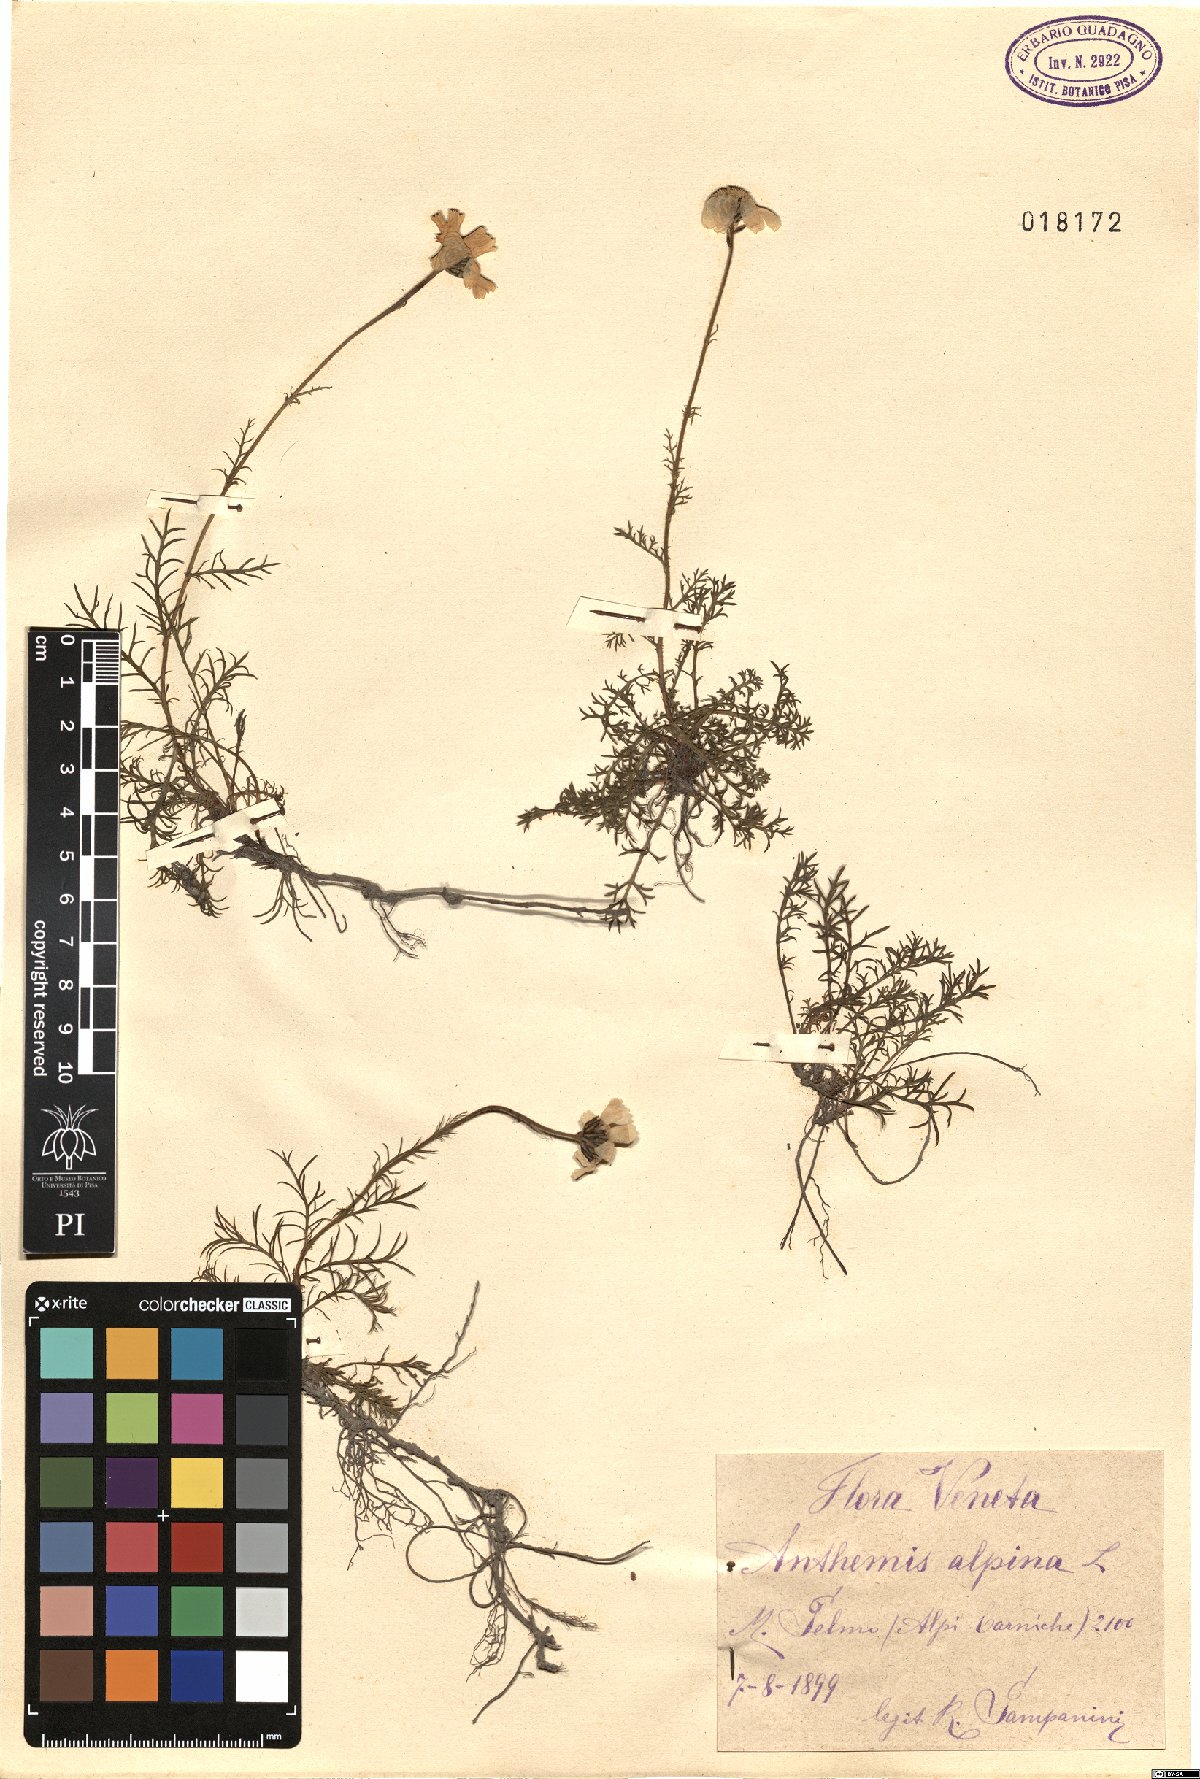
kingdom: Plantae
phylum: Tracheophyta
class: Magnoliopsida
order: Asterales
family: Asteraceae
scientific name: Asteraceae
